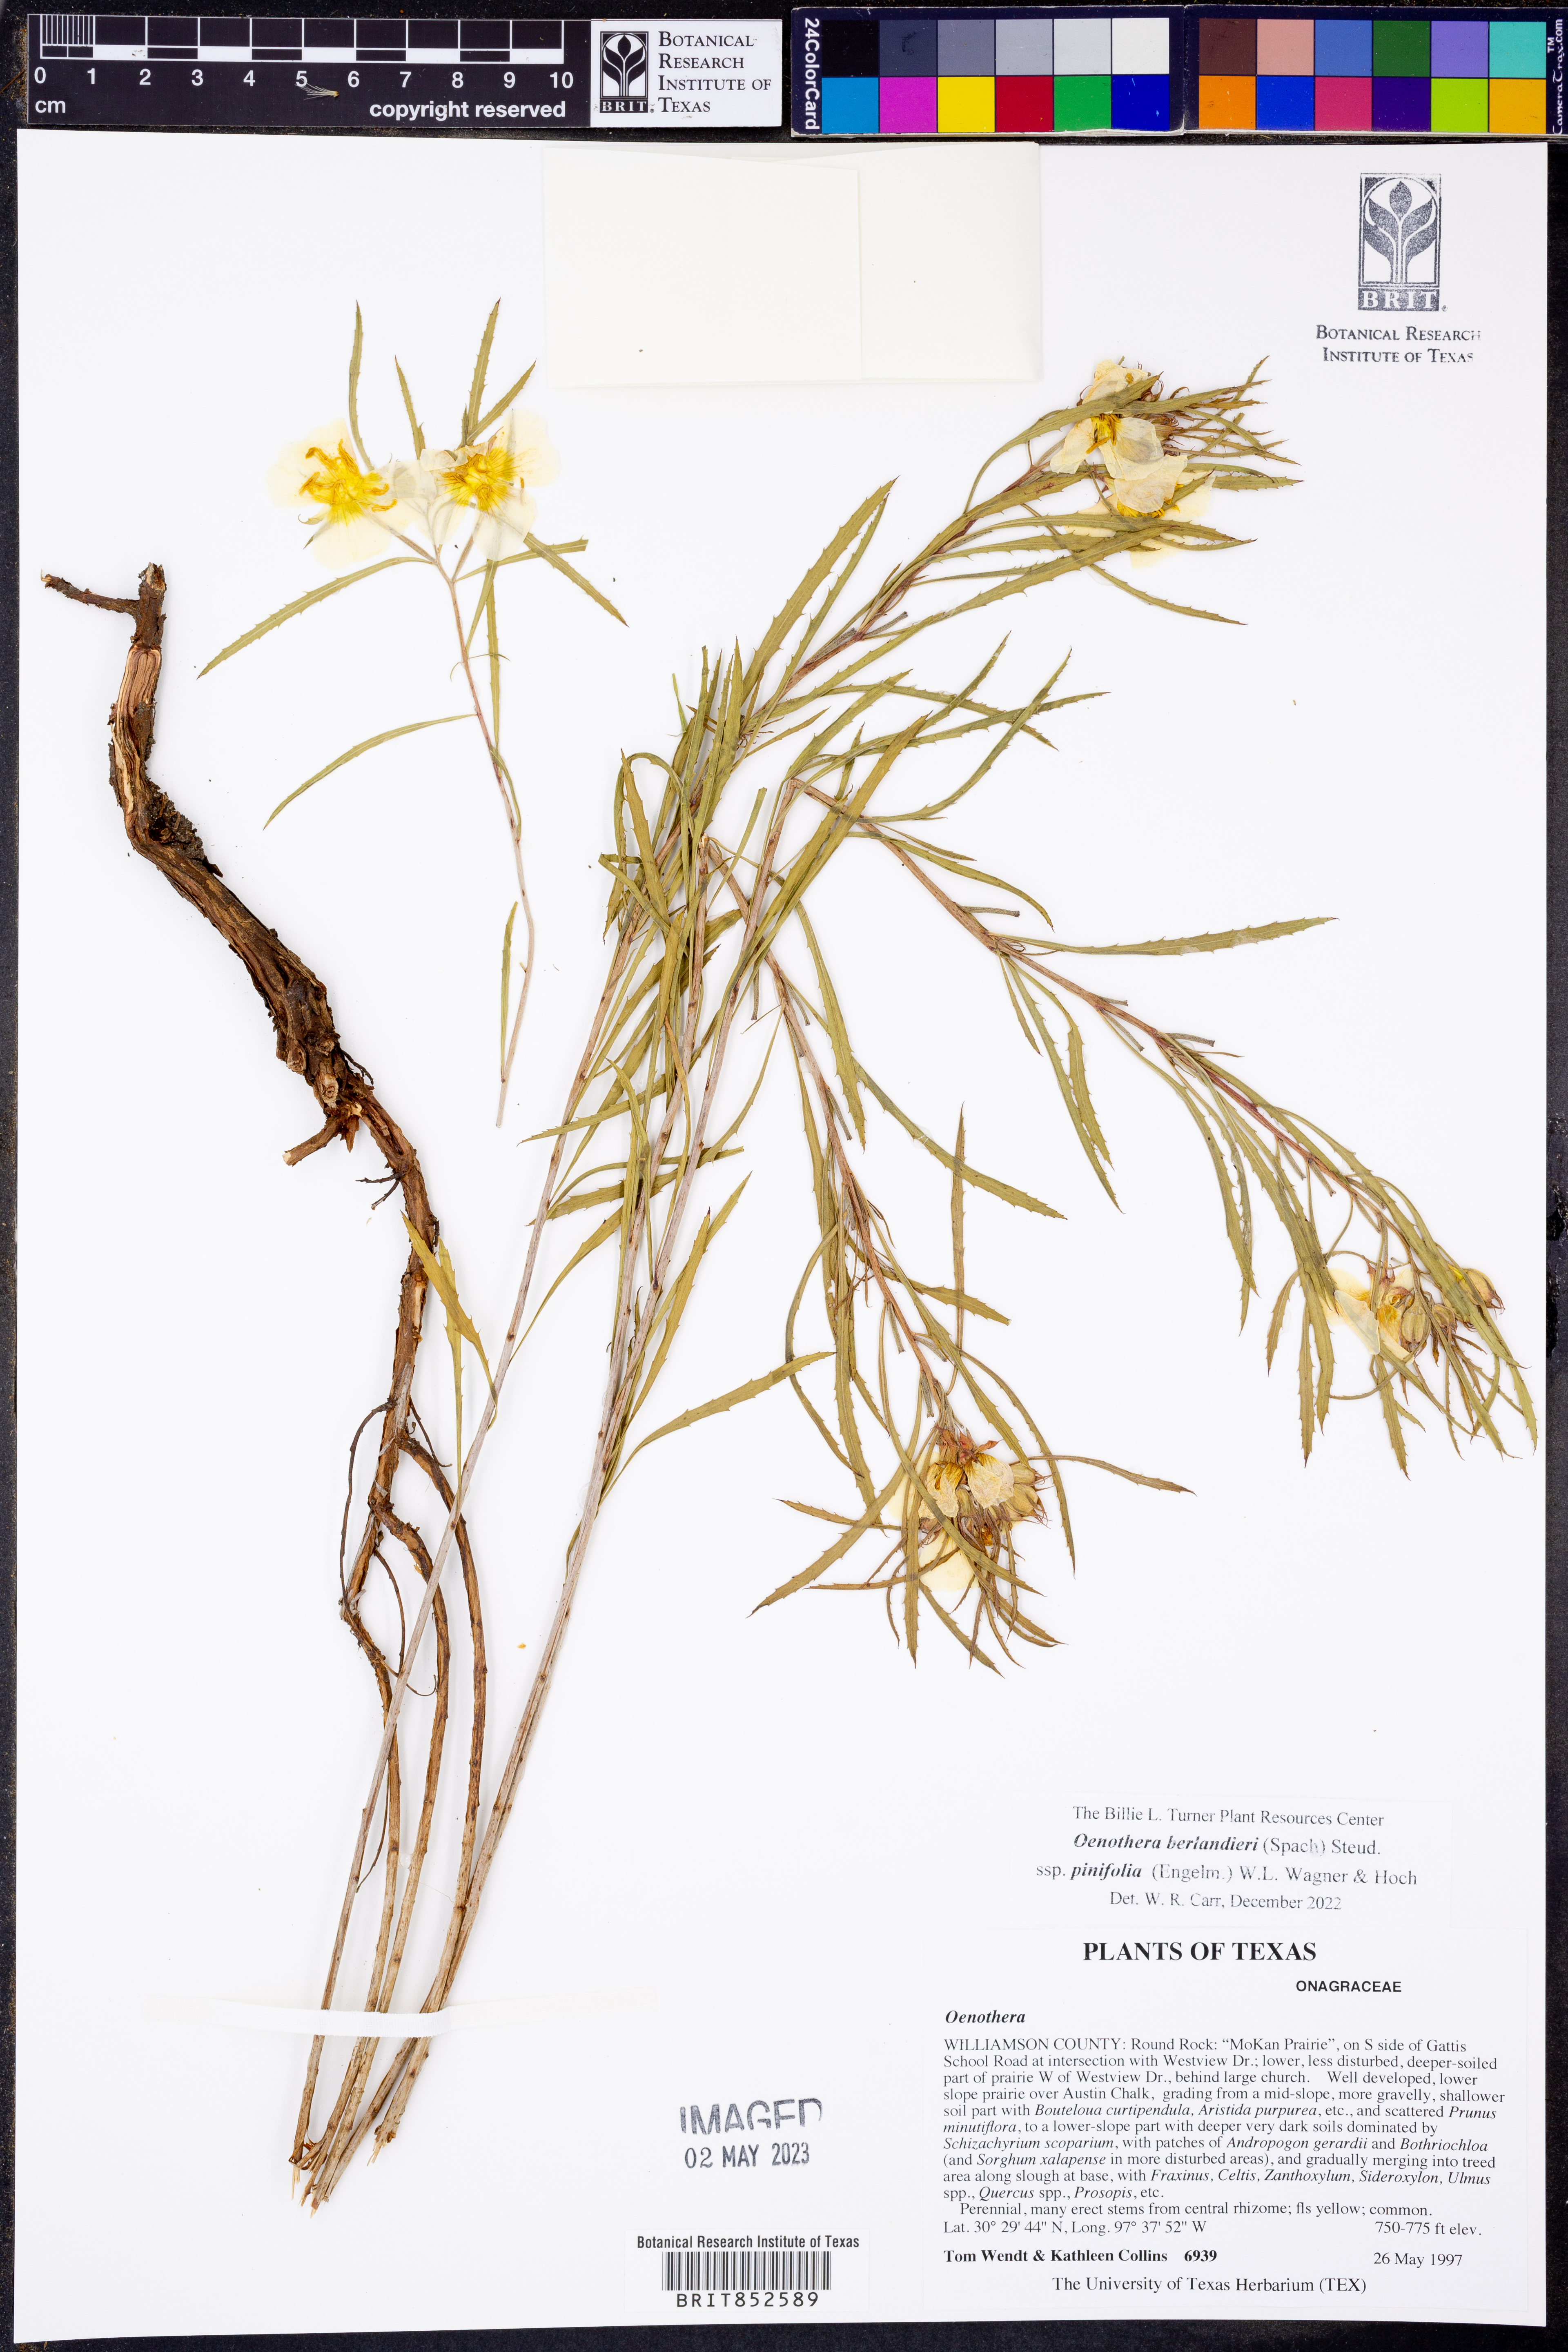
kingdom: Plantae
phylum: Tracheophyta
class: Magnoliopsida
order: Myrtales
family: Onagraceae
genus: Oenothera
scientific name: Oenothera capillifolia
